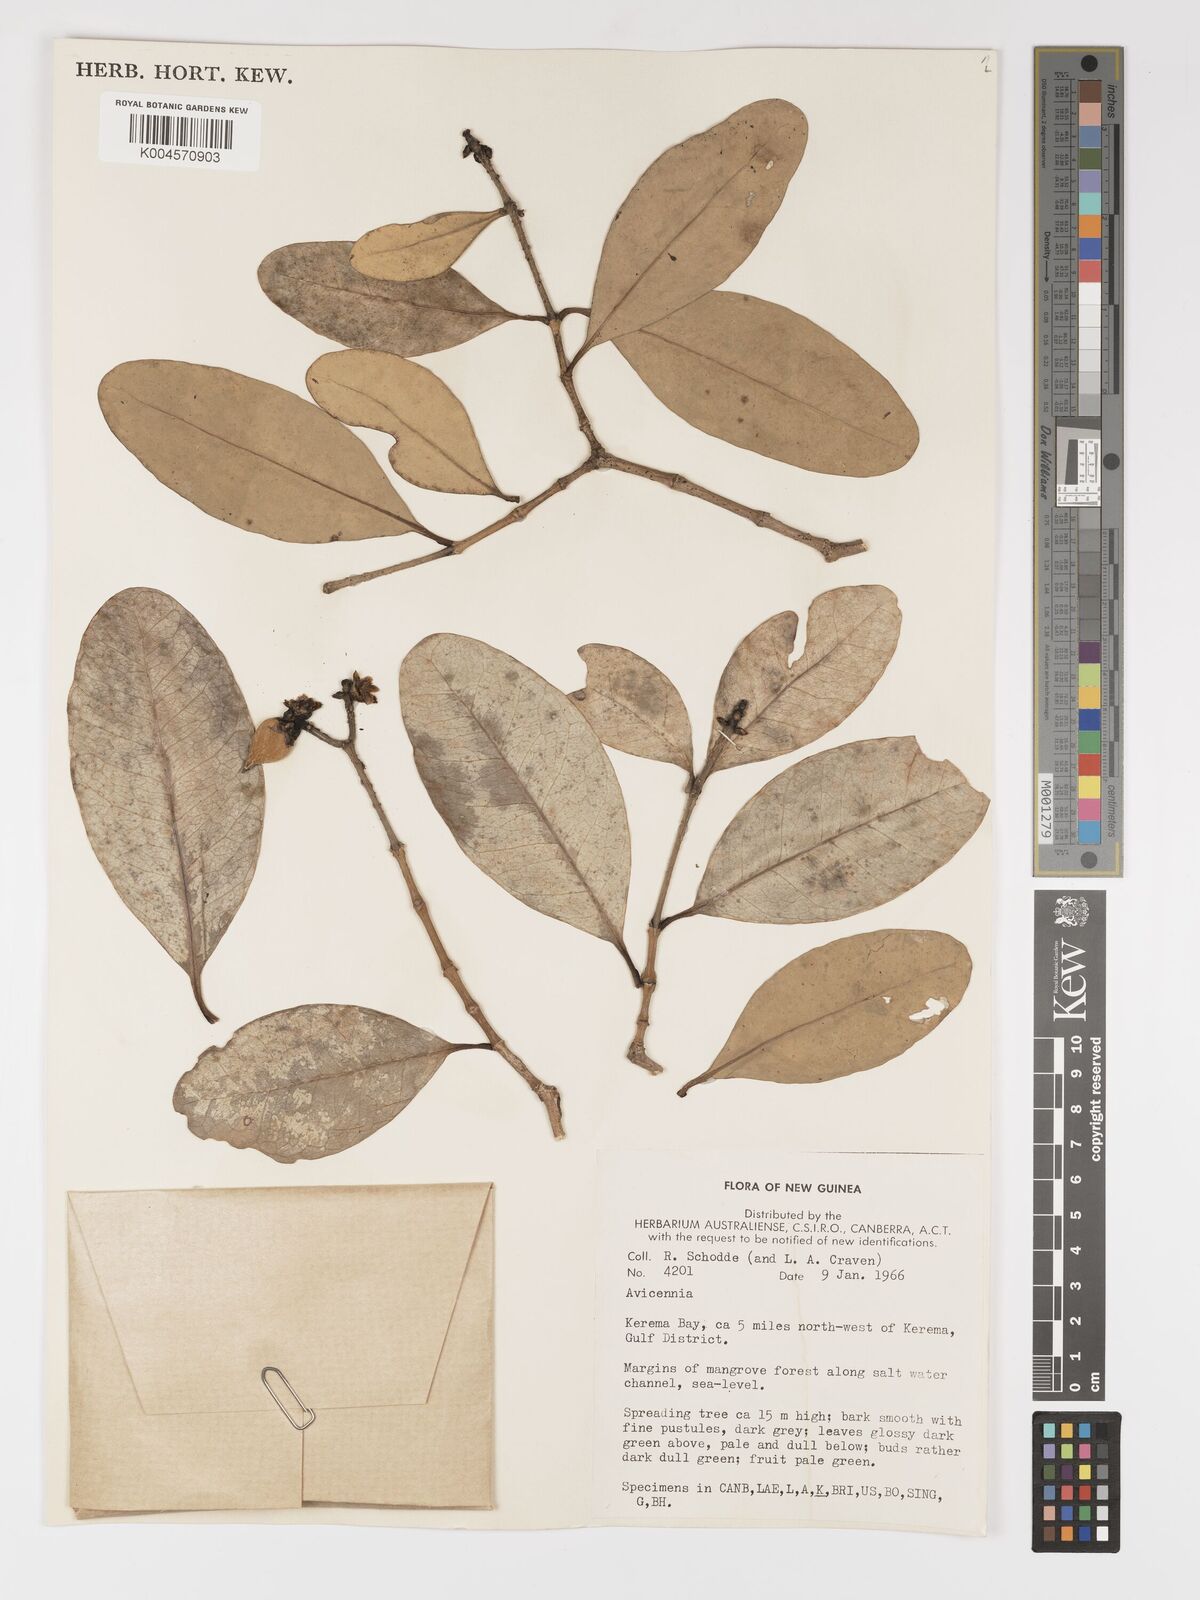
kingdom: Plantae
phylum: Tracheophyta
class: Magnoliopsida
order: Lamiales
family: Acanthaceae
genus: Avicennia
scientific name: Avicennia officinalis
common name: Baen
